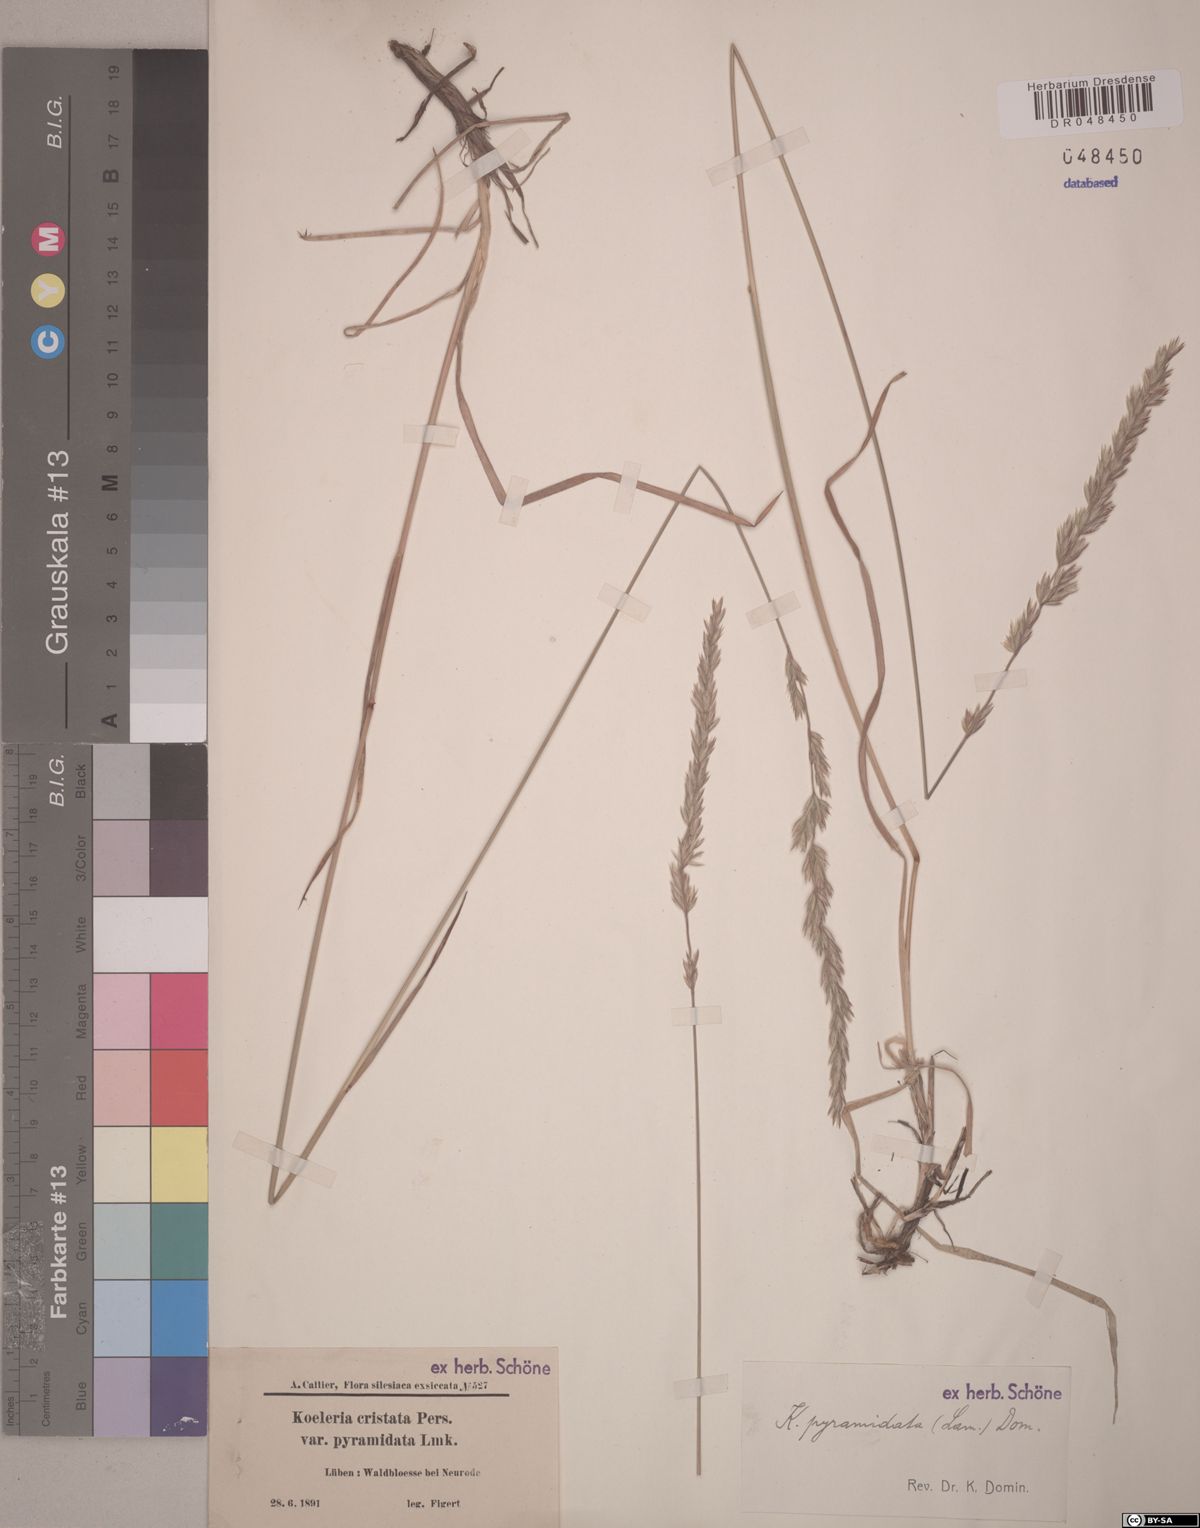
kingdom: Plantae
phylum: Tracheophyta
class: Liliopsida
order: Poales
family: Poaceae
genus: Koeleria
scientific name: Koeleria pyramidata
